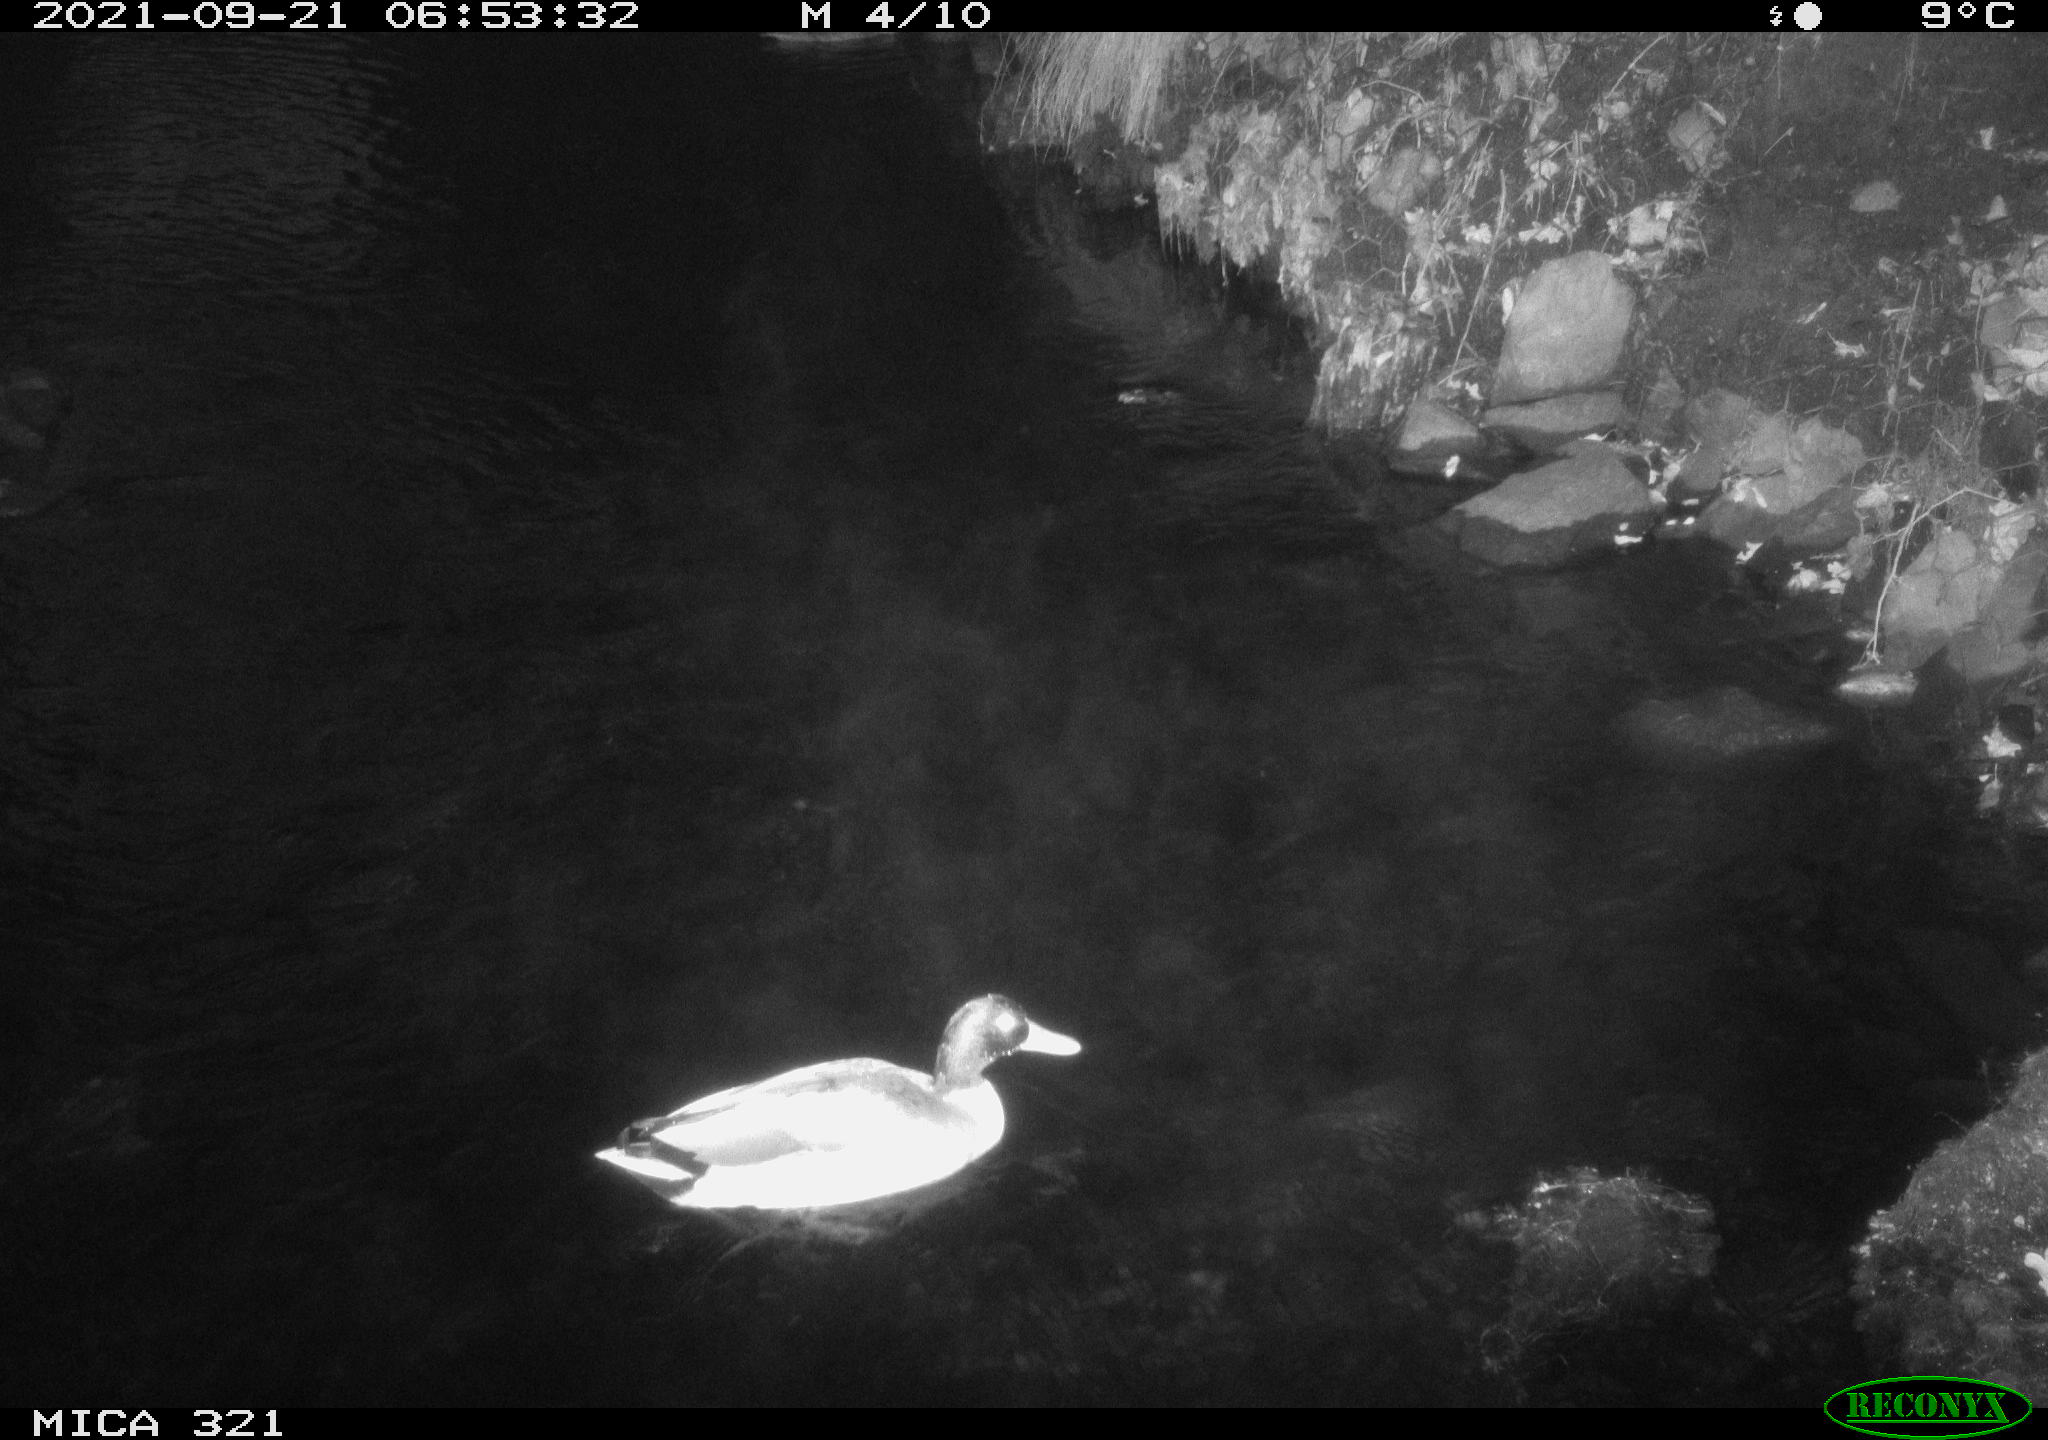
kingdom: Animalia
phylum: Chordata
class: Aves
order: Anseriformes
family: Anatidae
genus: Anas
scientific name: Anas platyrhynchos
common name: Mallard
